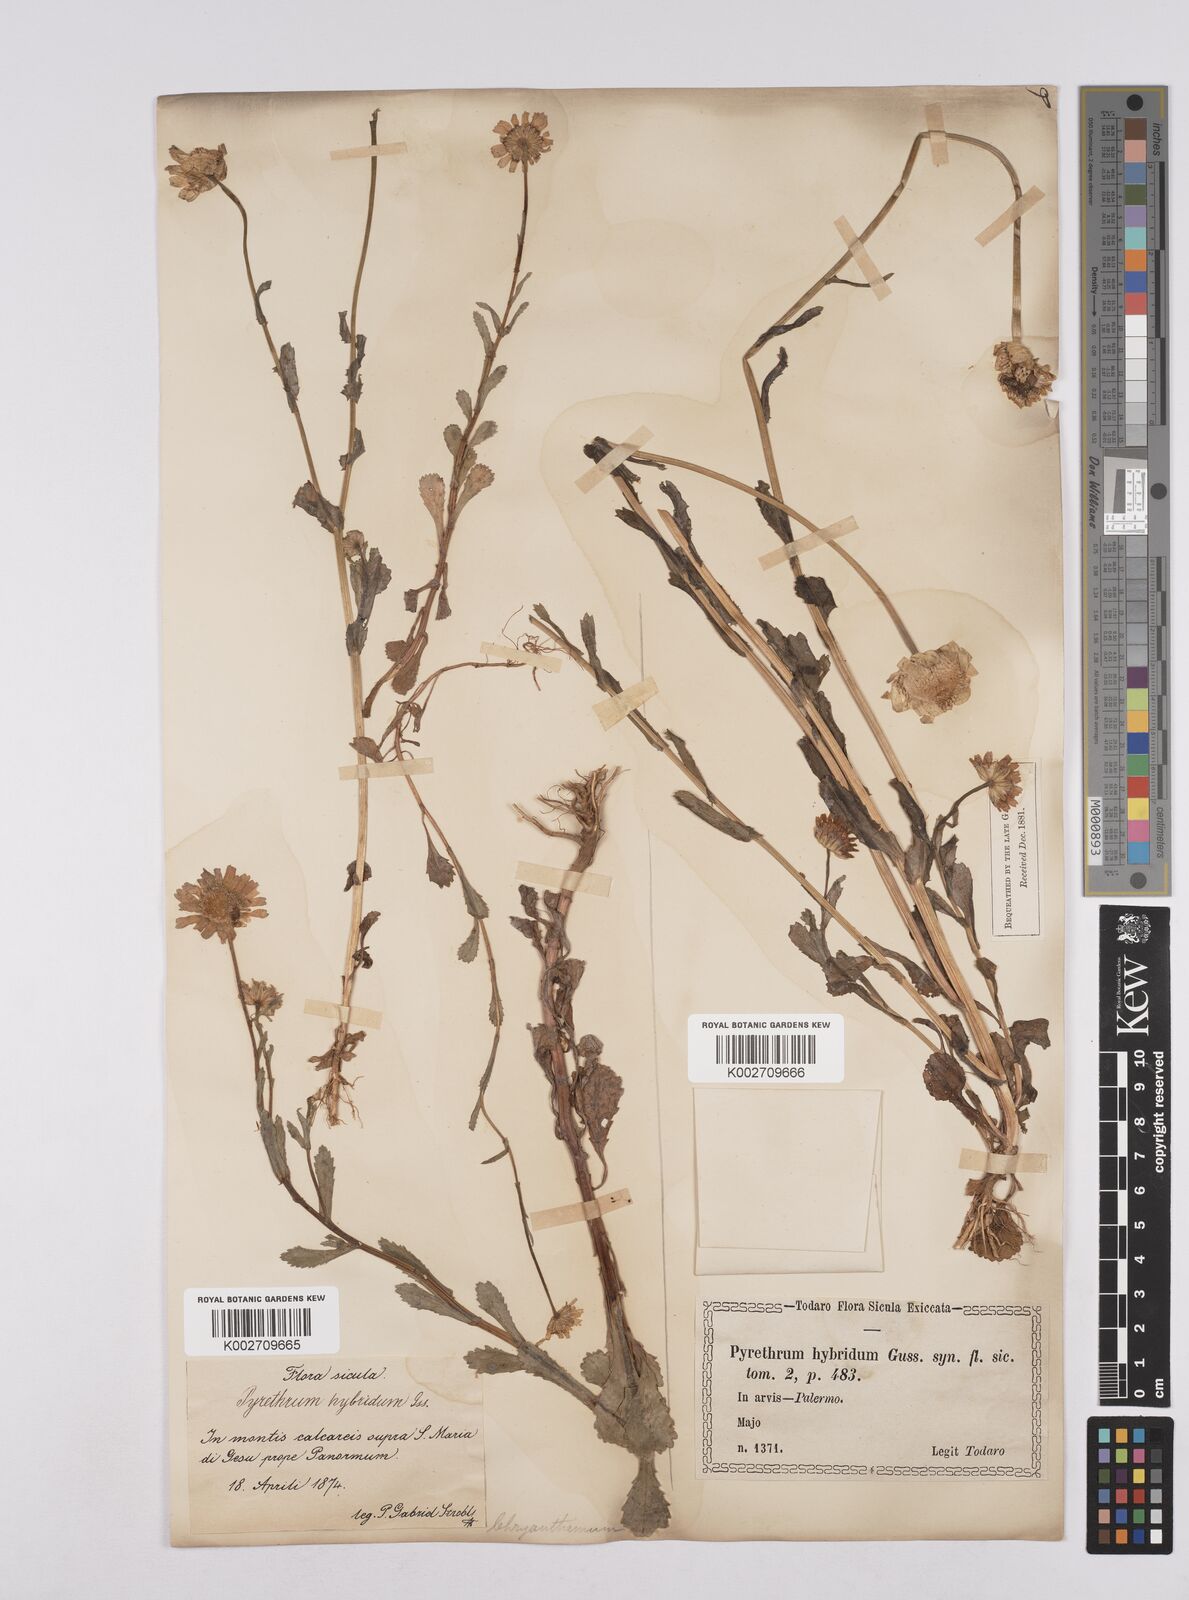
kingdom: Plantae
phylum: Tracheophyta
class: Magnoliopsida
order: Asterales
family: Asteraceae
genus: Coleostephus
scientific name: Coleostephus paludosus
